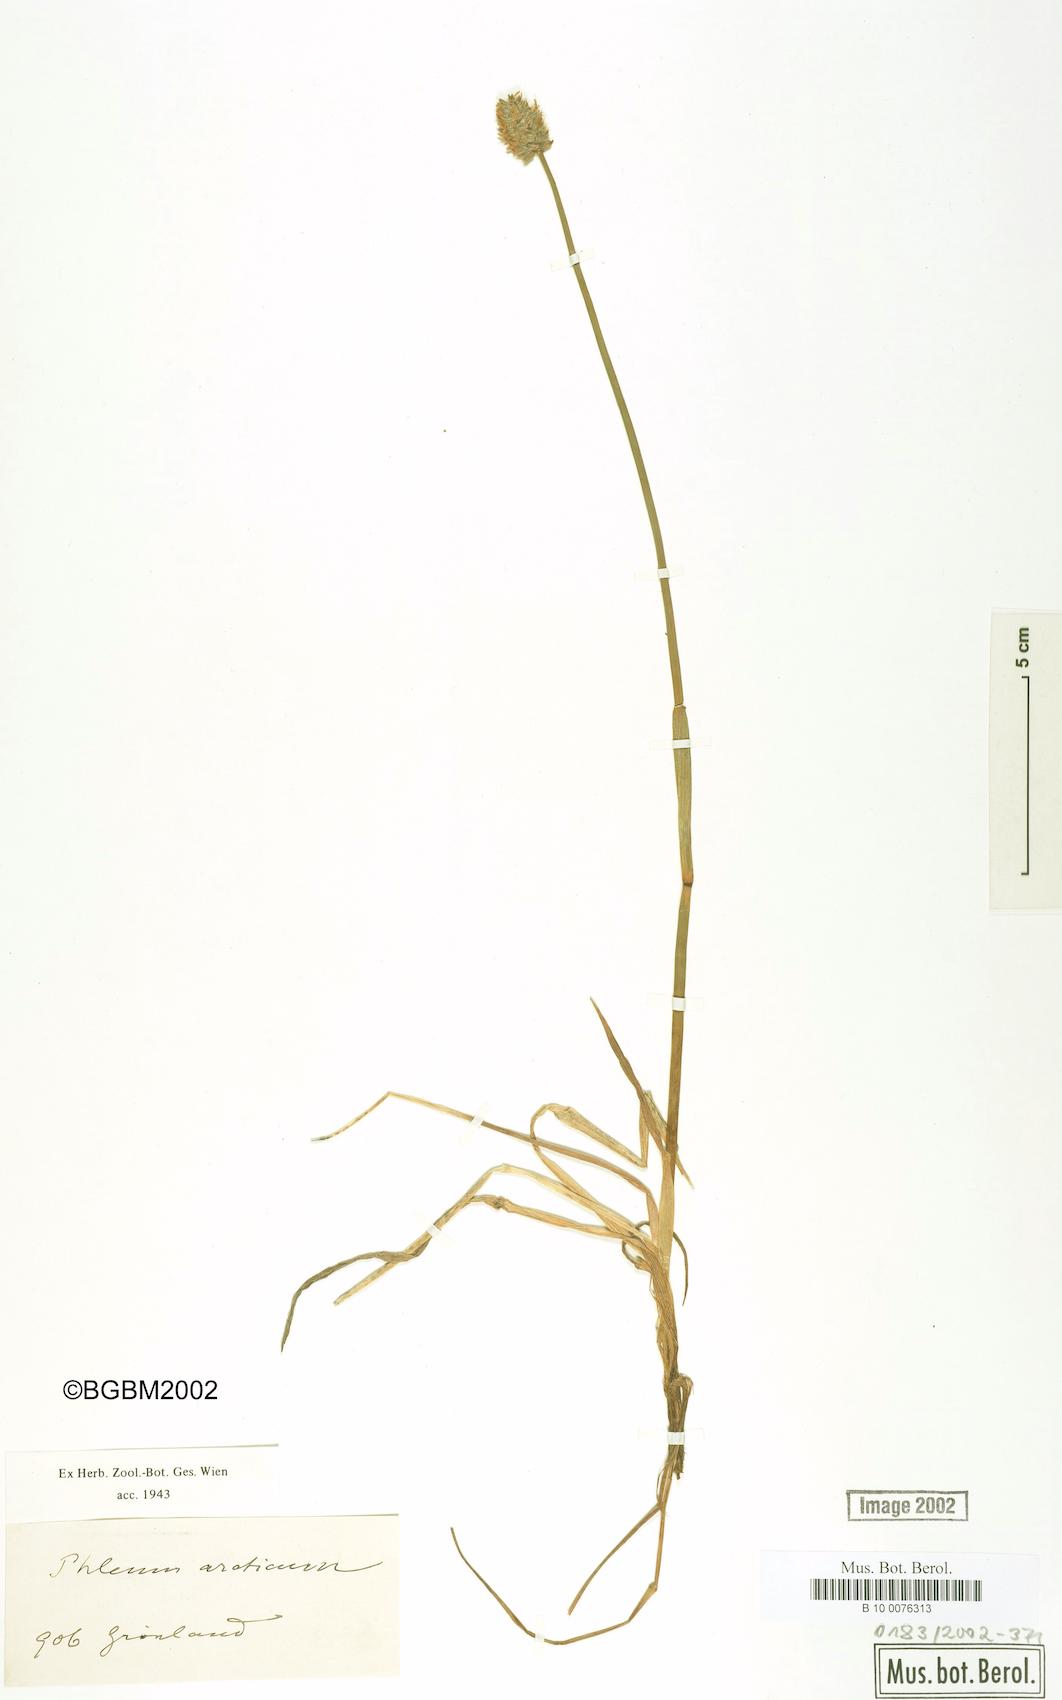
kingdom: Plantae
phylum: Tracheophyta
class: Liliopsida
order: Poales
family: Poaceae
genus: Phleum
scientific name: Phleum alpinum
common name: Alpine cat's-tail
